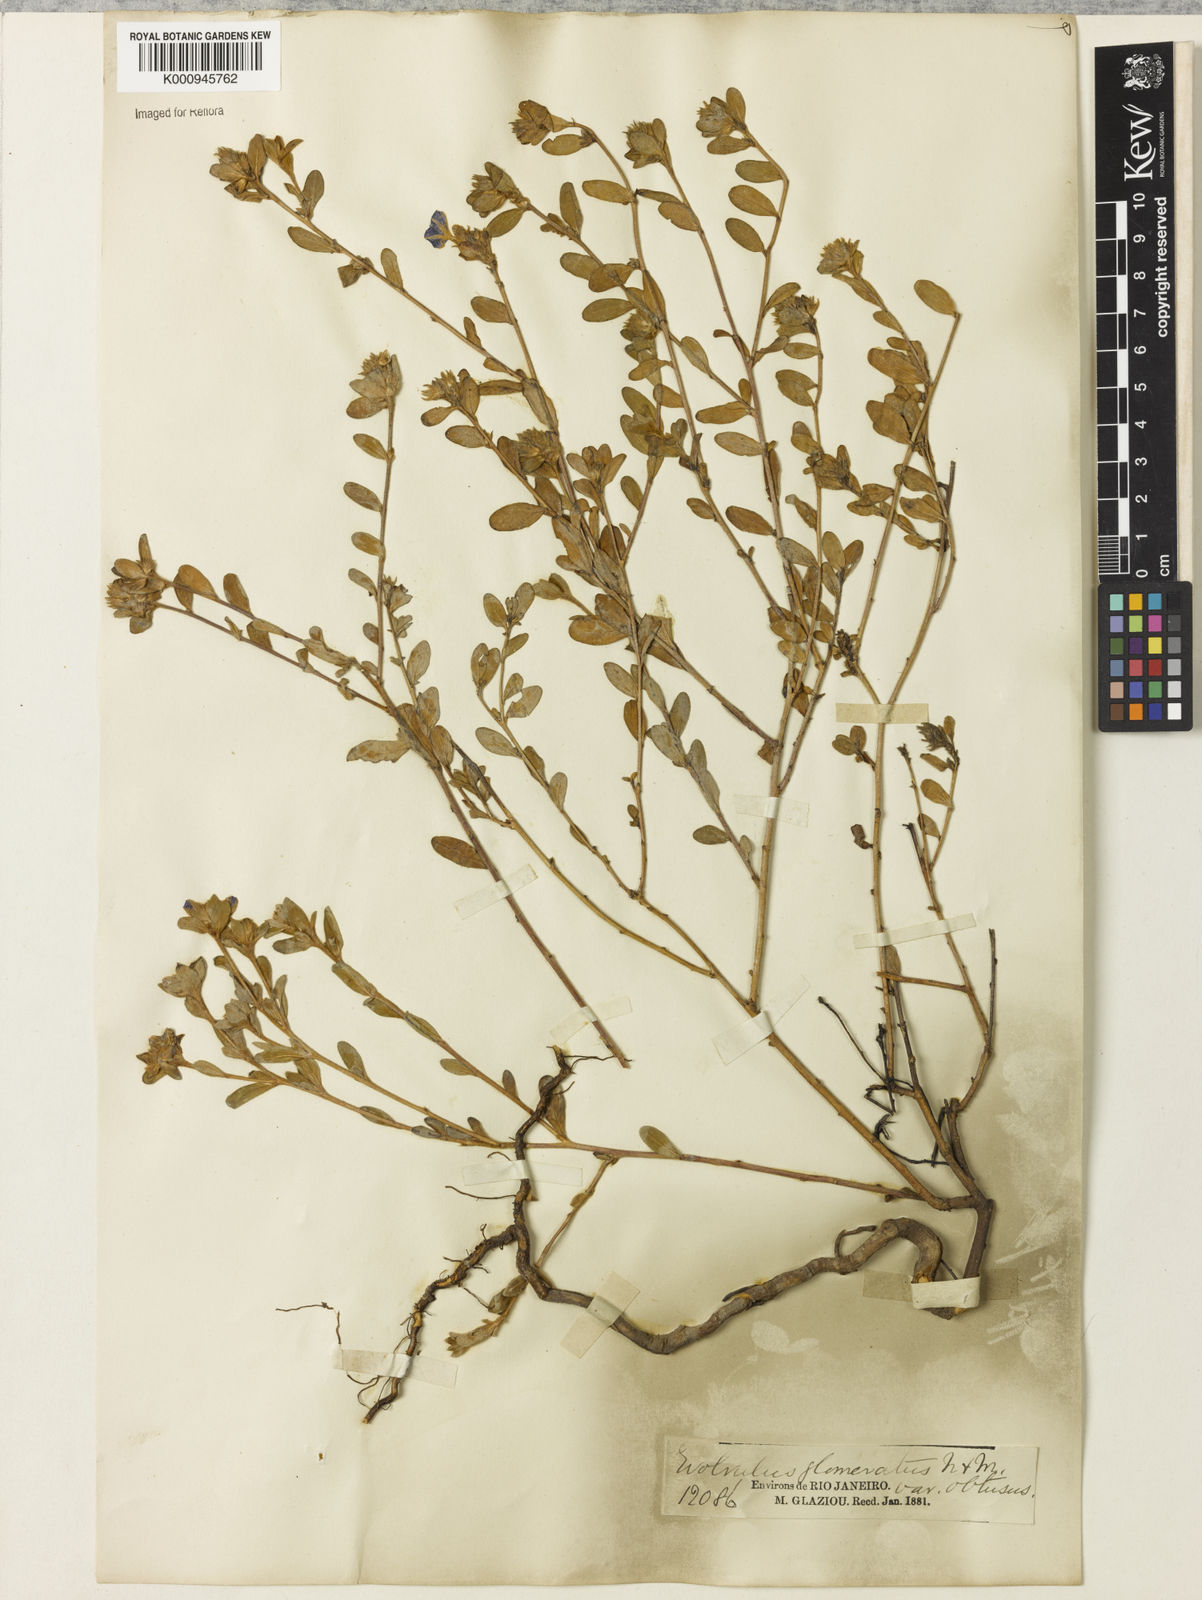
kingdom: Plantae
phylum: Tracheophyta
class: Magnoliopsida
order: Solanales
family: Convolvulaceae
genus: Evolvulus
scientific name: Evolvulus glomeratus
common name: Brazilian dwarf morning-glory
